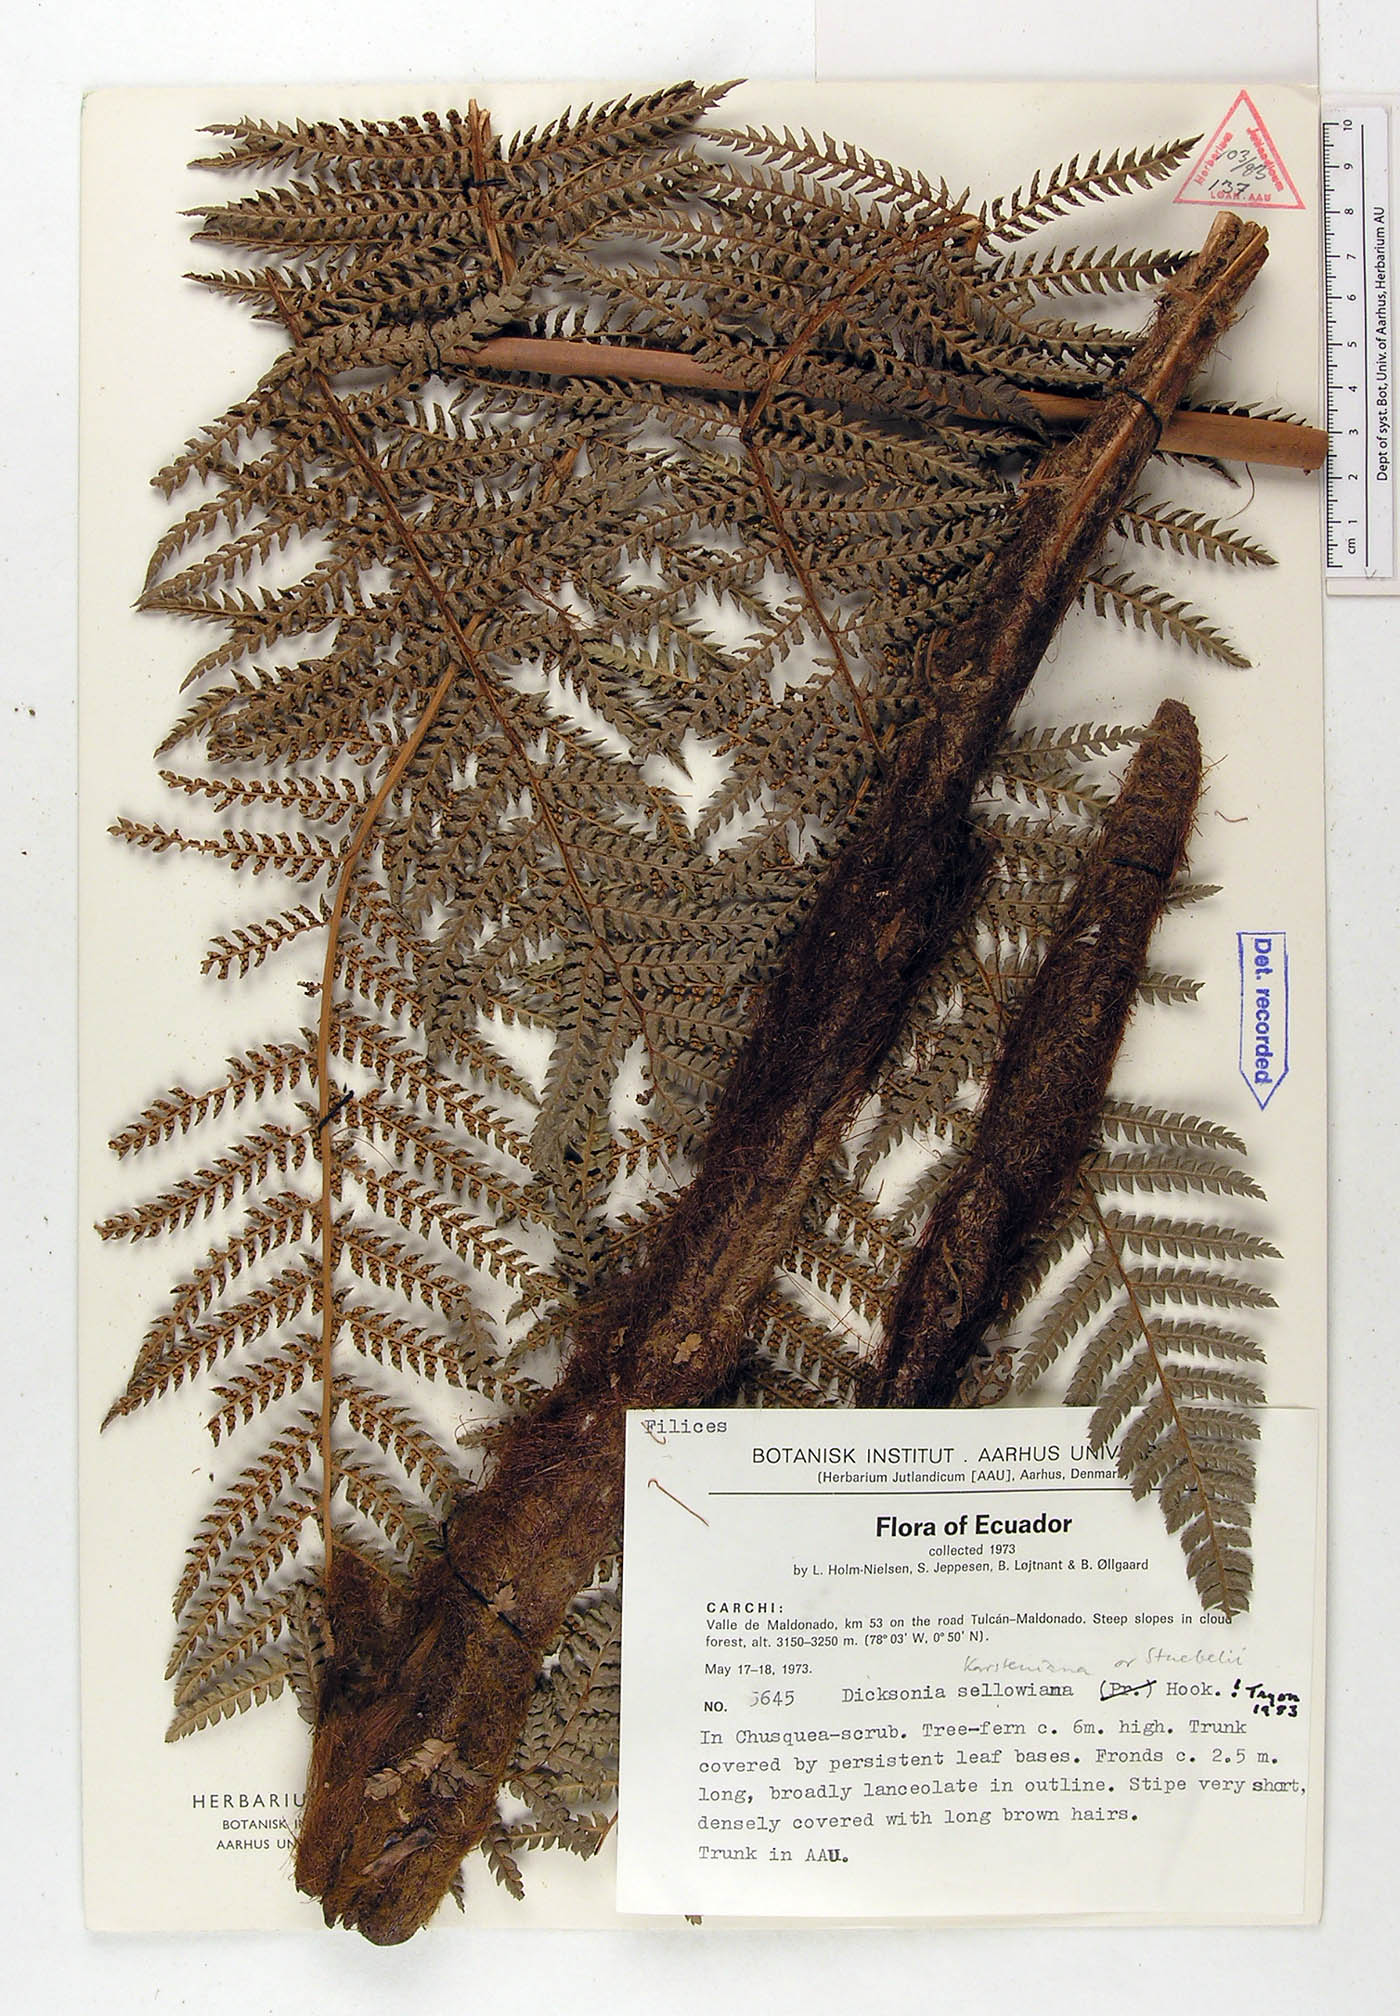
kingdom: Plantae
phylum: Tracheophyta
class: Polypodiopsida
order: Cyatheales
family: Dicksoniaceae
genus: Dicksonia
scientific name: Dicksonia sellowiana
